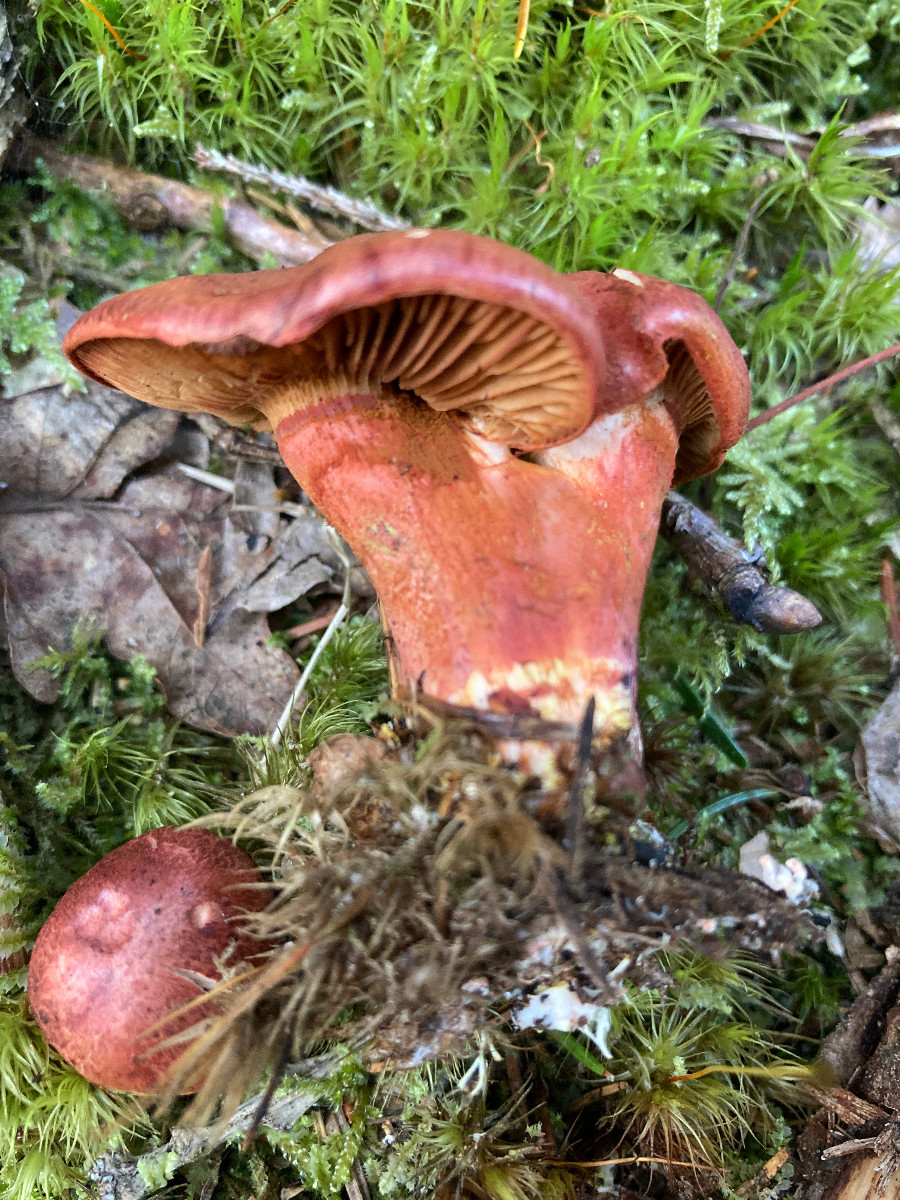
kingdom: Fungi
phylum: Basidiomycota
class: Agaricomycetes
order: Agaricales
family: Cortinariaceae
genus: Cortinarius
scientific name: Cortinarius bolaris
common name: cinnoberskællet slørhat
